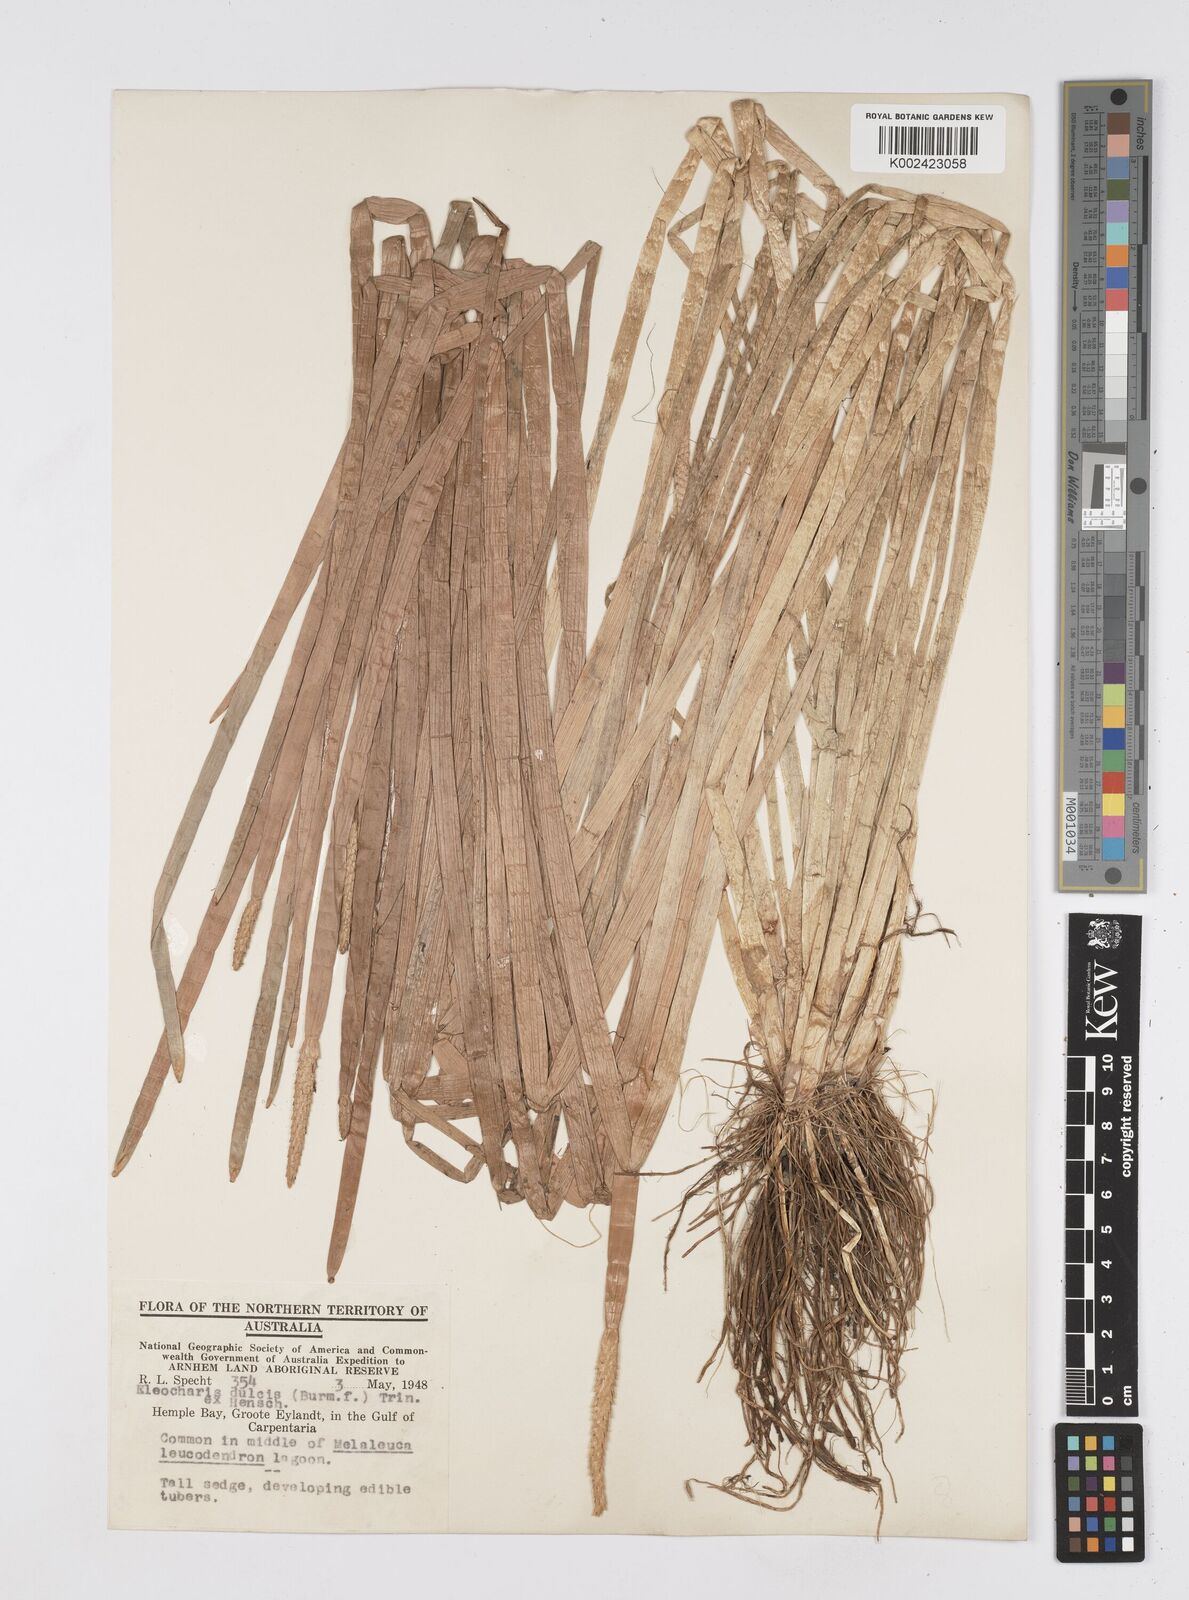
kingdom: Plantae
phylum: Tracheophyta
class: Liliopsida
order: Poales
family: Cyperaceae
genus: Eleocharis
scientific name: Eleocharis dulcis
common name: Chinese water chestnut
